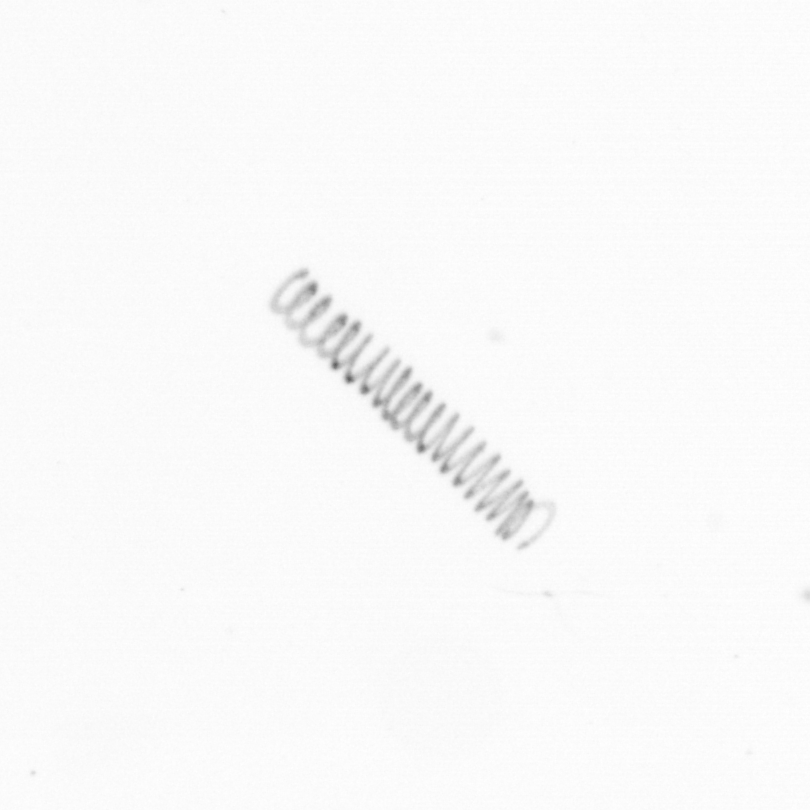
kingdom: Chromista
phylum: Ochrophyta
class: Bacillariophyceae
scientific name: Bacillariophyceae
